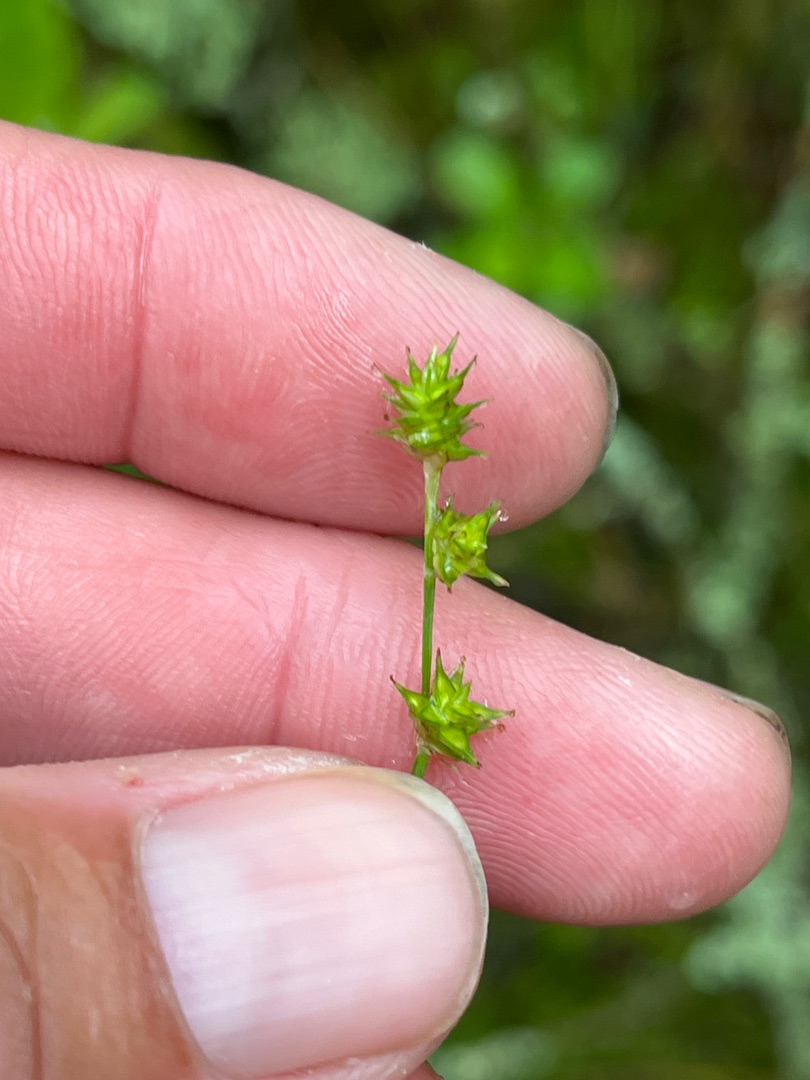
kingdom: Plantae
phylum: Tracheophyta
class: Liliopsida
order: Poales
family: Cyperaceae
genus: Carex
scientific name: Carex echinata
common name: Stjerne-star
